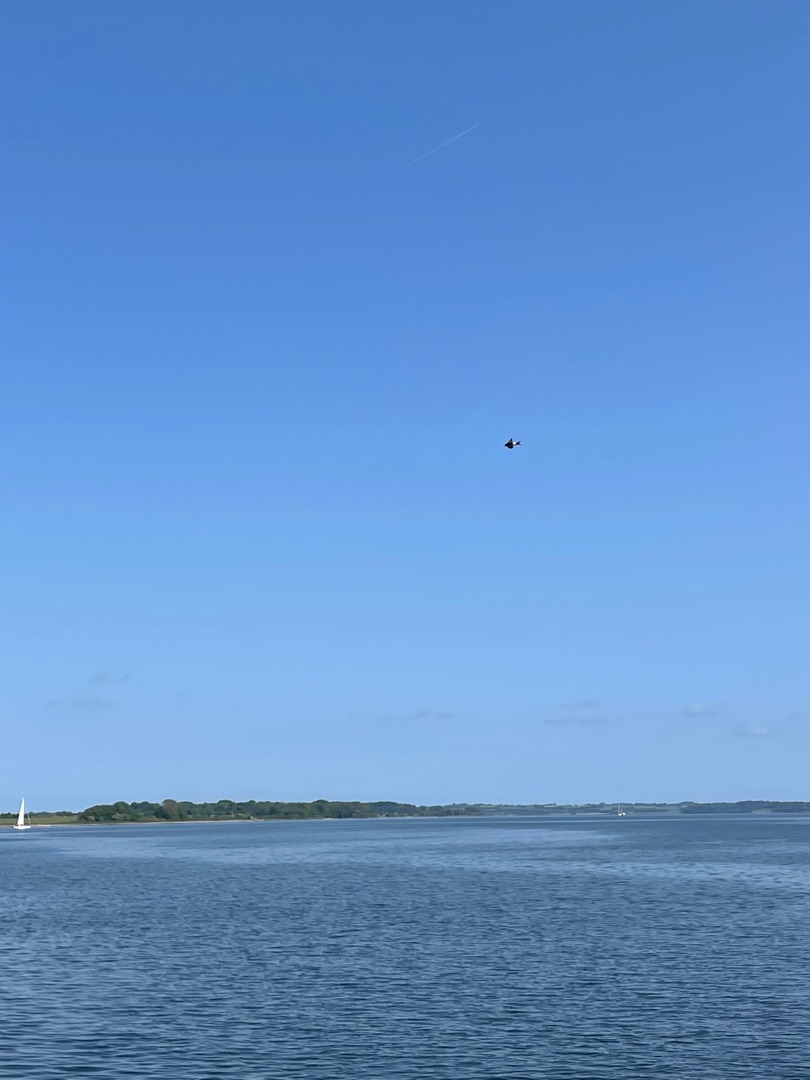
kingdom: Animalia
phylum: Chordata
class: Aves
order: Passeriformes
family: Hirundinidae
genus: Delichon
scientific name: Delichon urbicum
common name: Bysvale
